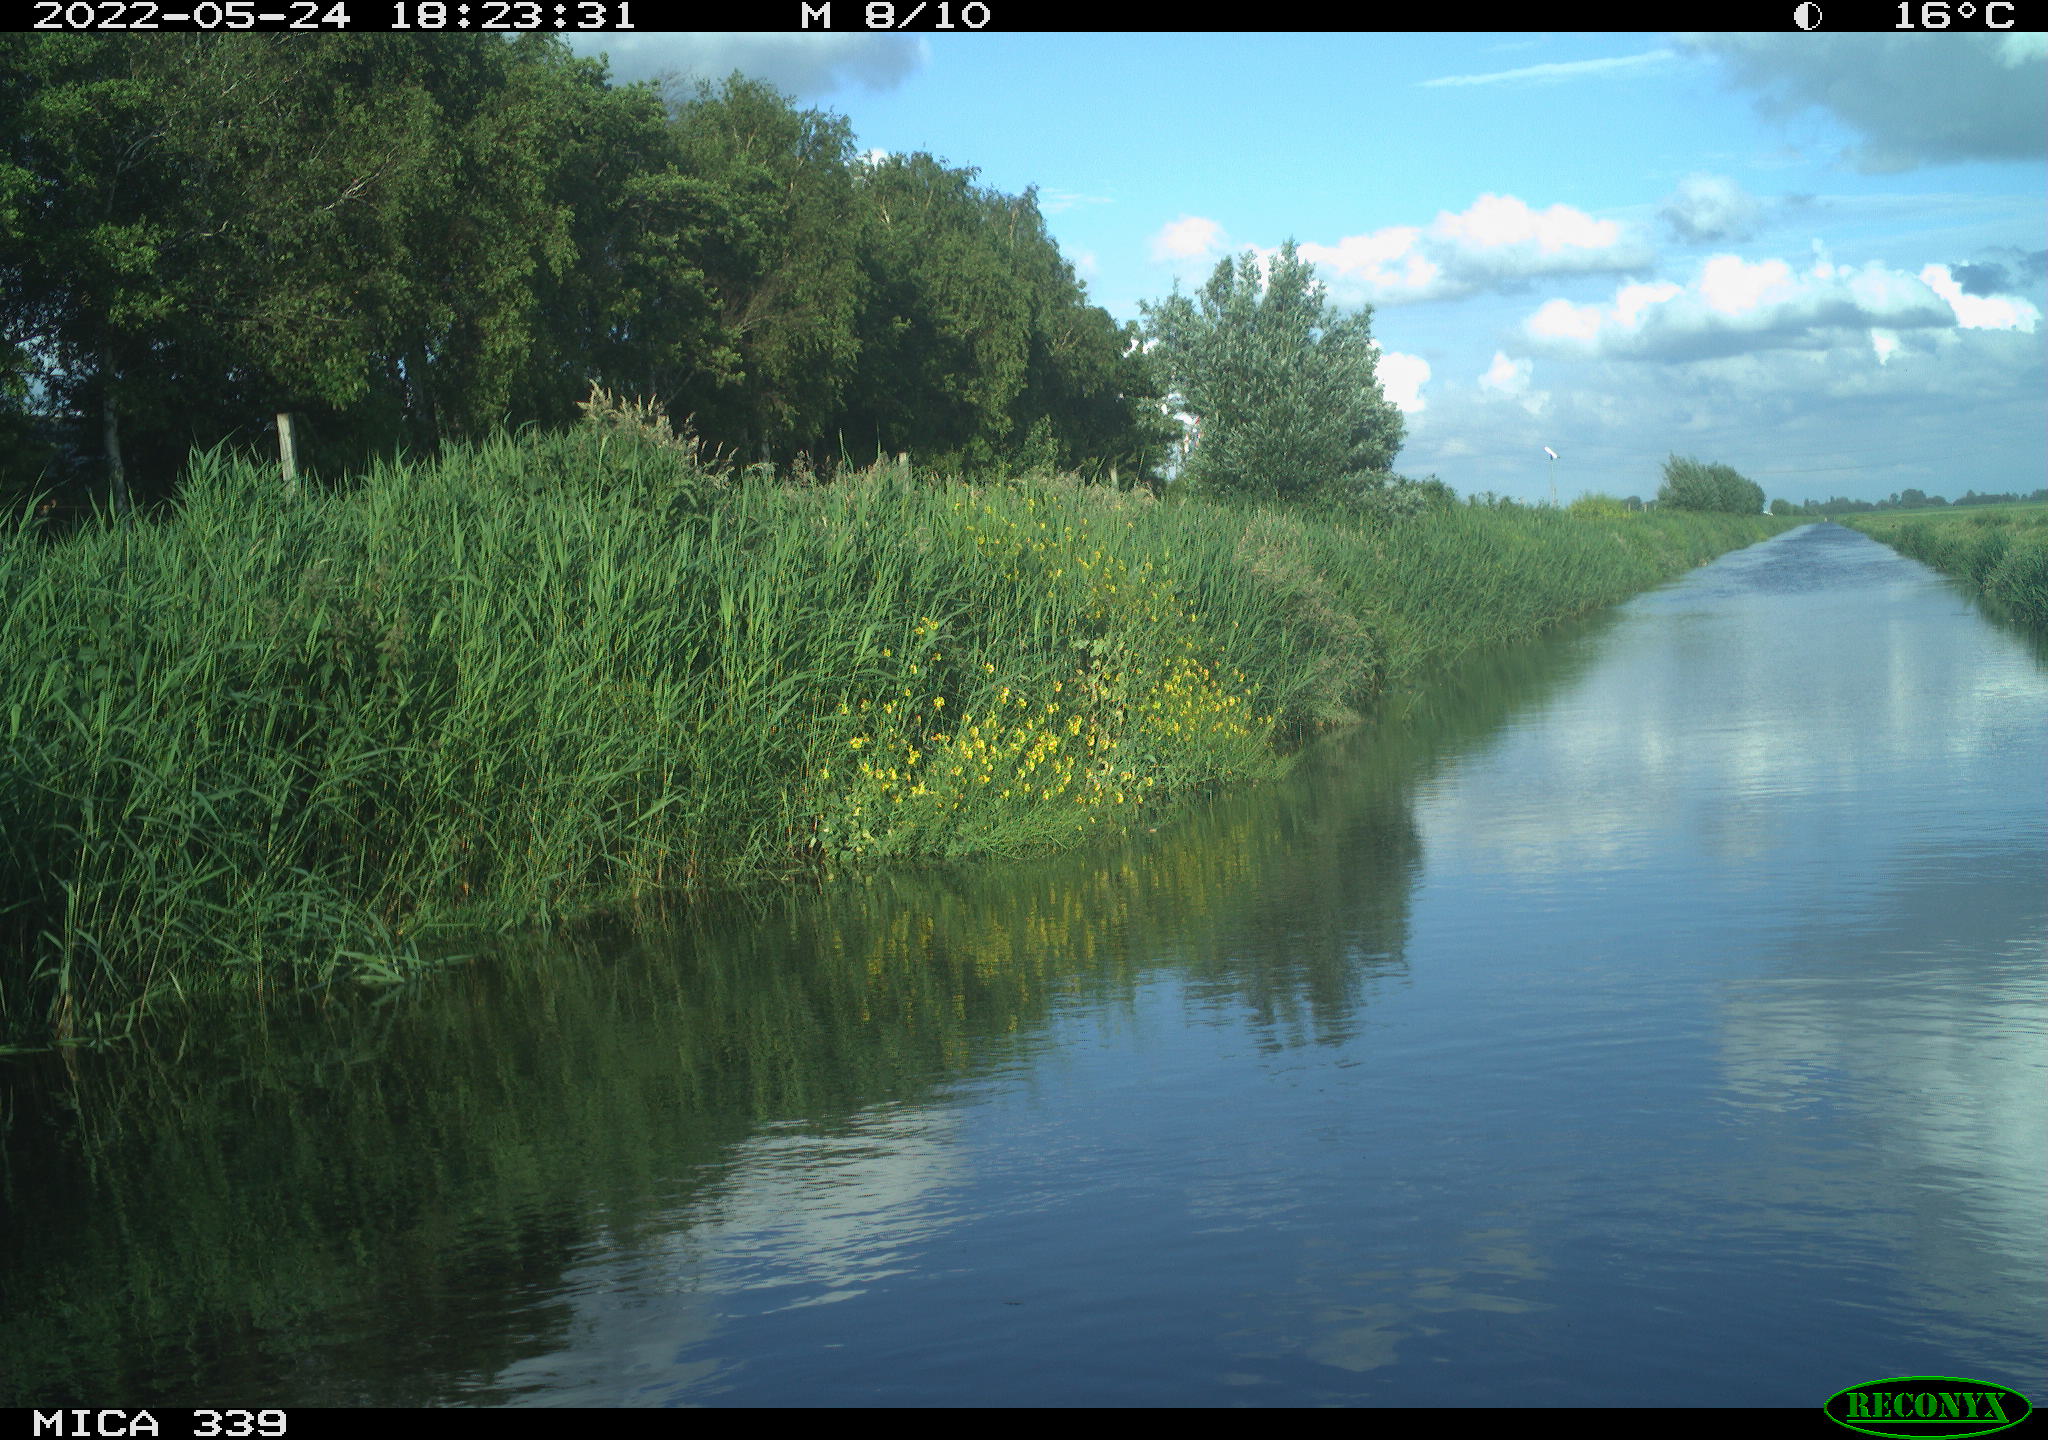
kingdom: Animalia
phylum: Chordata
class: Aves
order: Pelecaniformes
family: Ardeidae
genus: Ardea
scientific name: Ardea cinerea
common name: Grey heron
